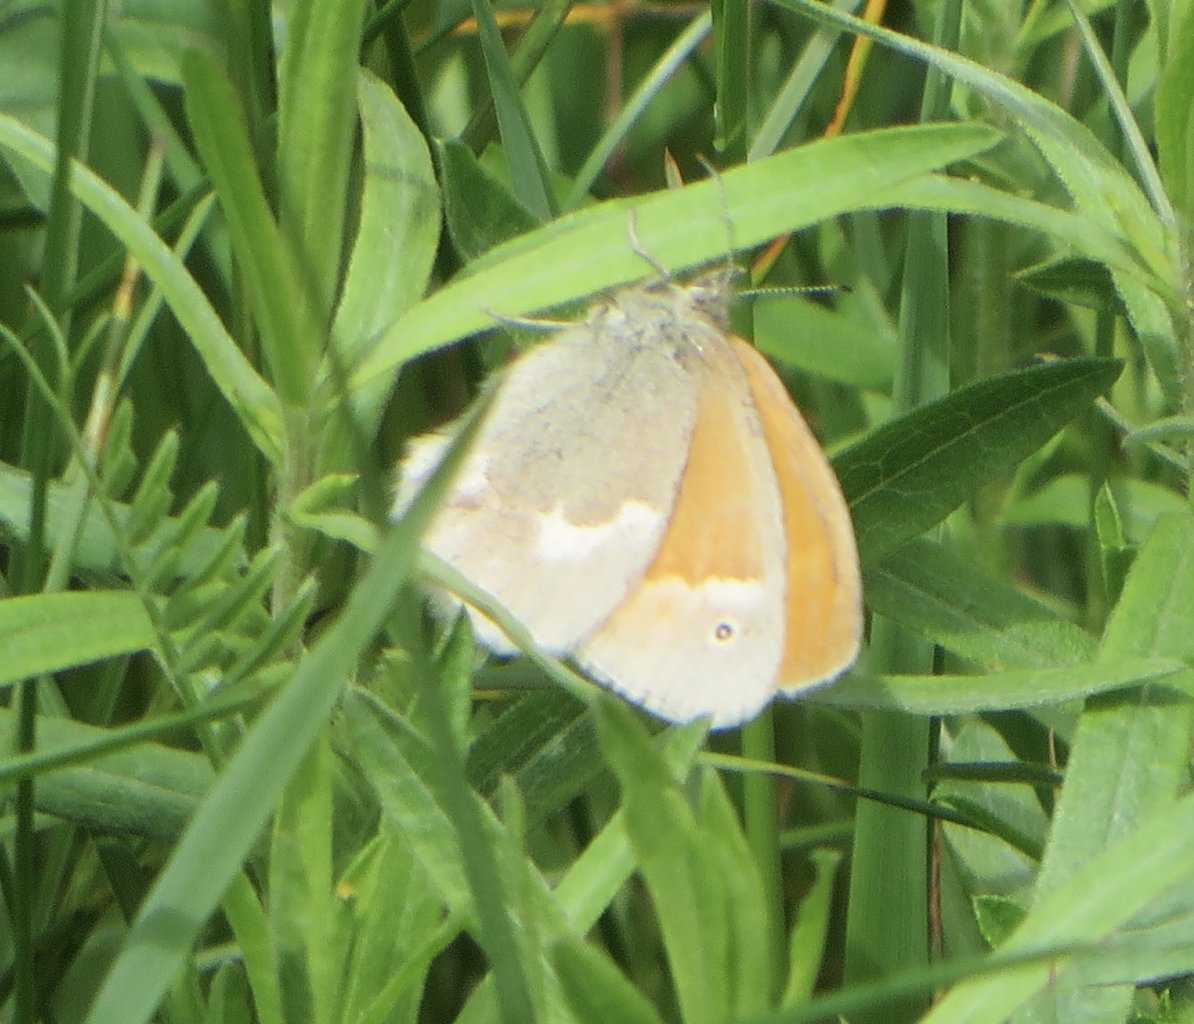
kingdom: Animalia
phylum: Arthropoda
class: Insecta
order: Lepidoptera
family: Nymphalidae
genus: Coenonympha
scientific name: Coenonympha tullia
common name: Large Heath
